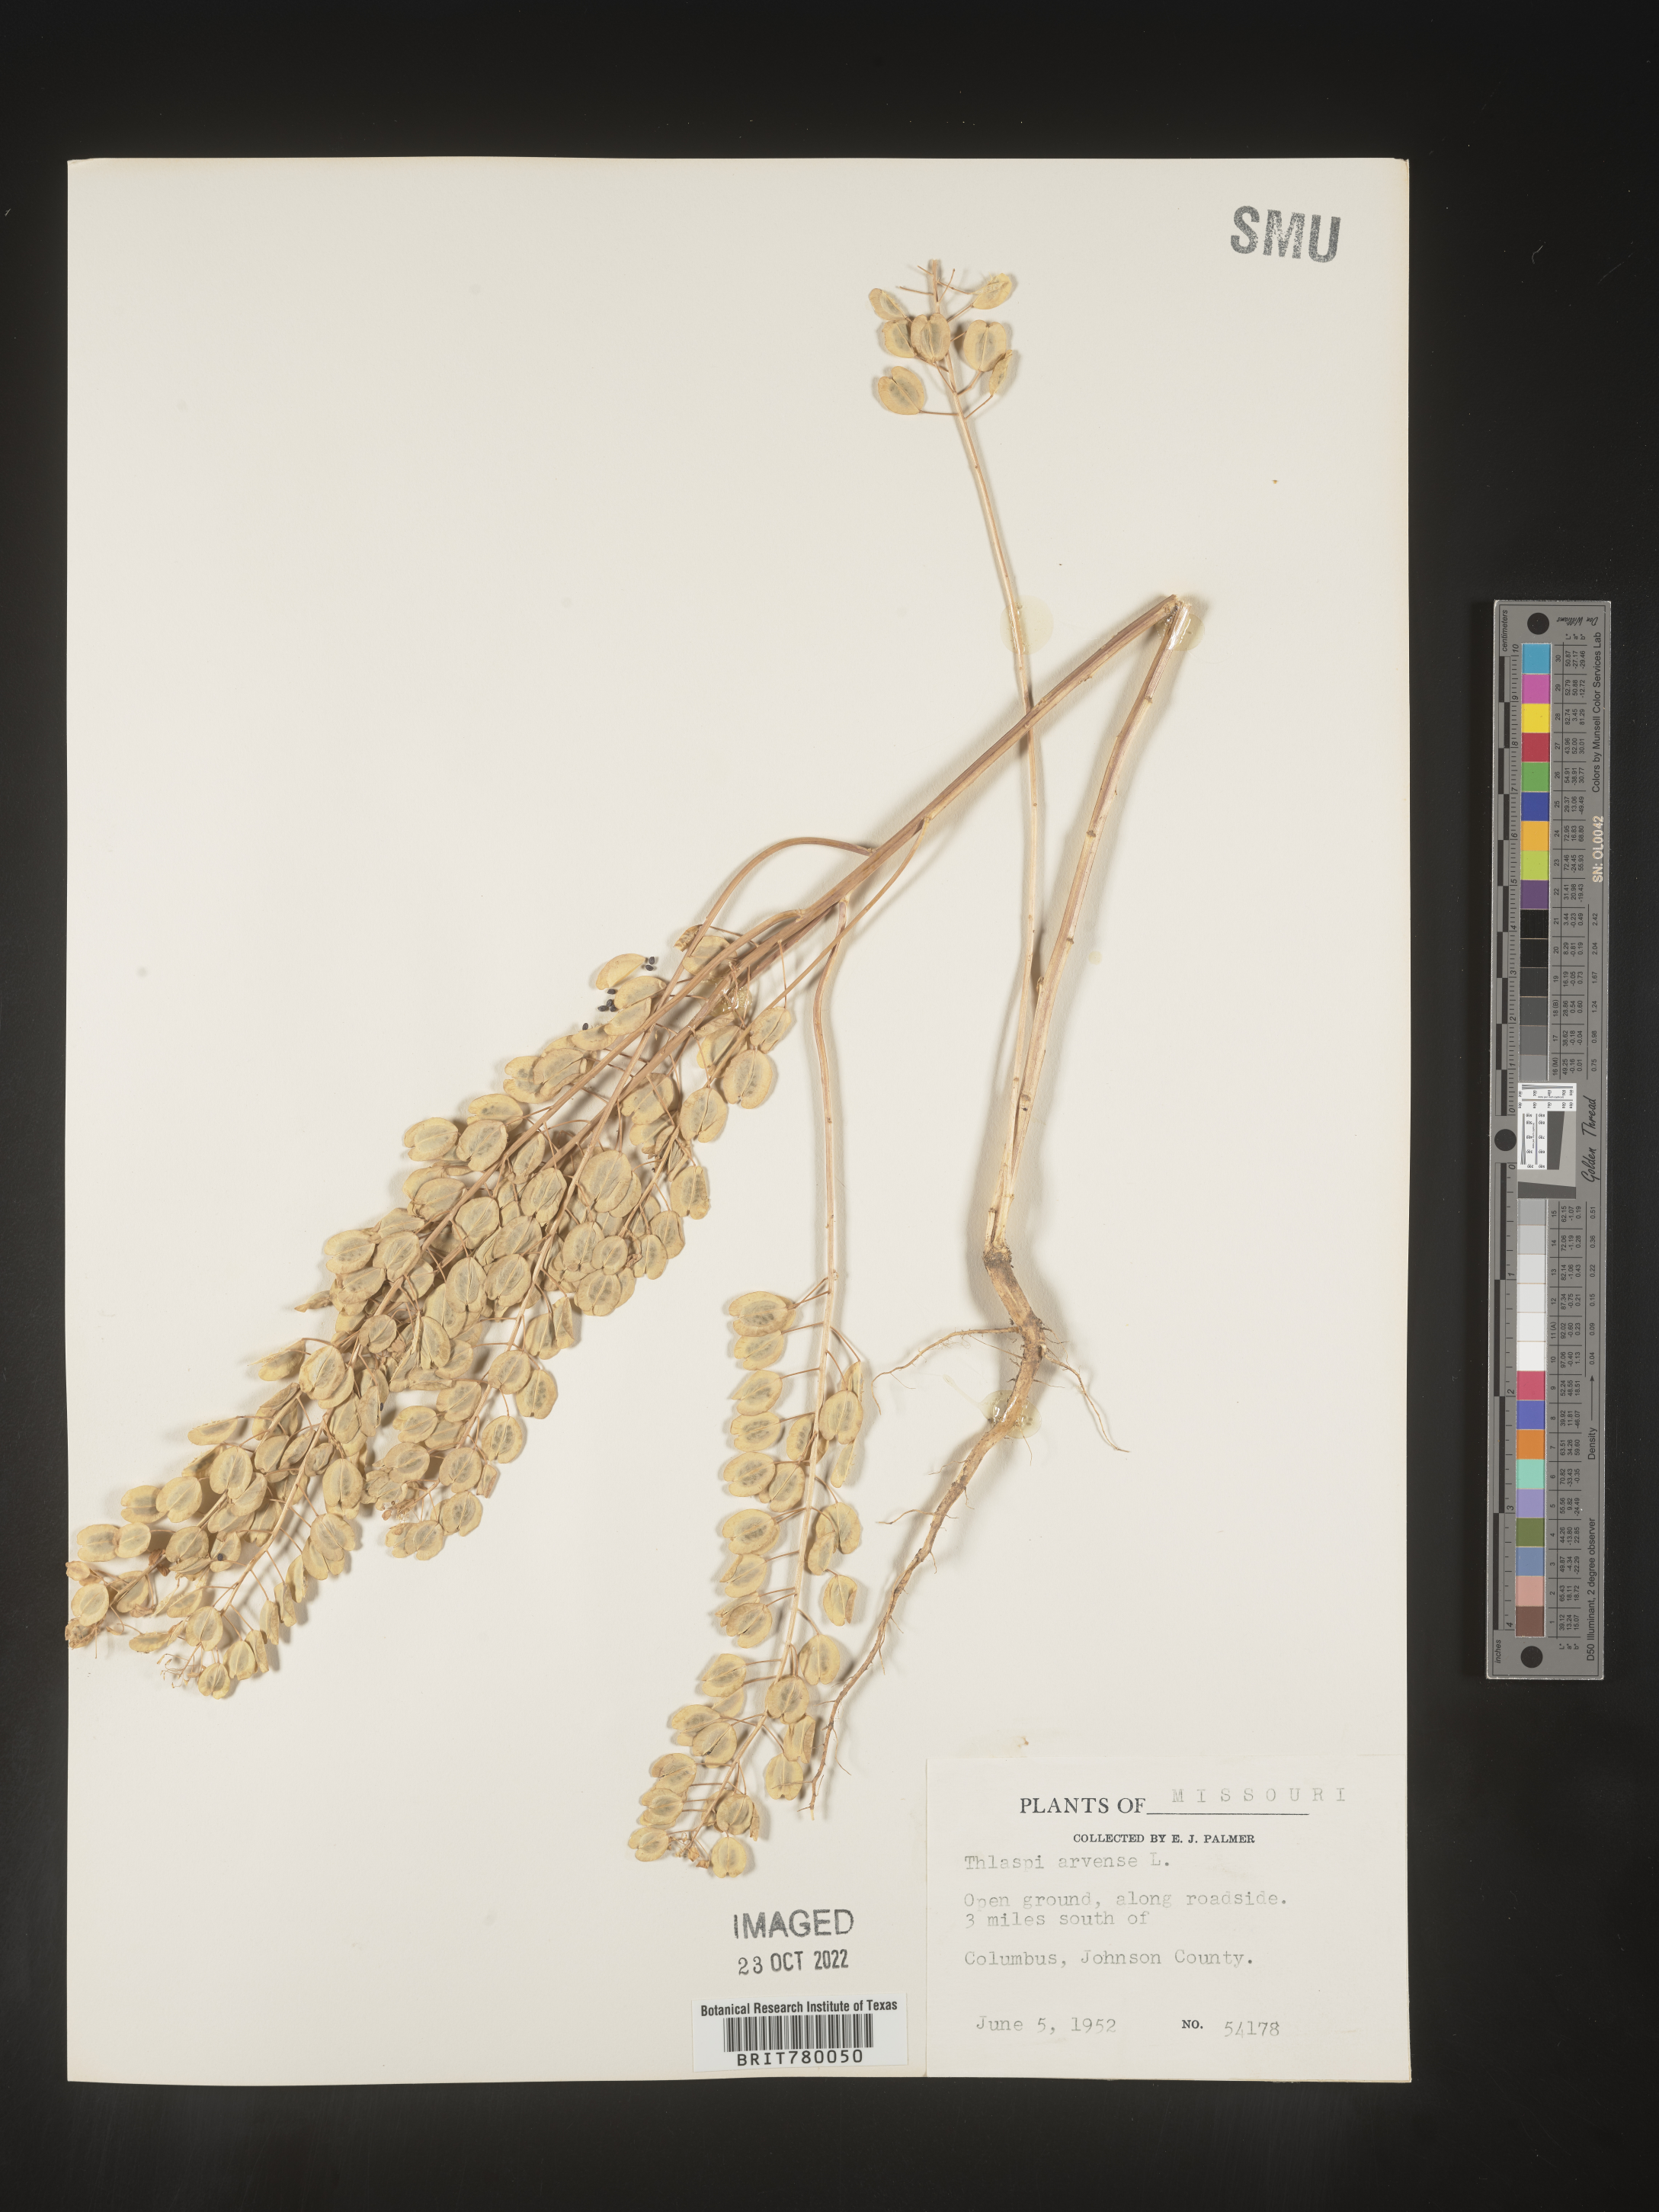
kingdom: Plantae
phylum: Tracheophyta
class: Magnoliopsida
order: Brassicales
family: Brassicaceae
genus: Thlaspi
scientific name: Thlaspi arvense
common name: Field pennycress
